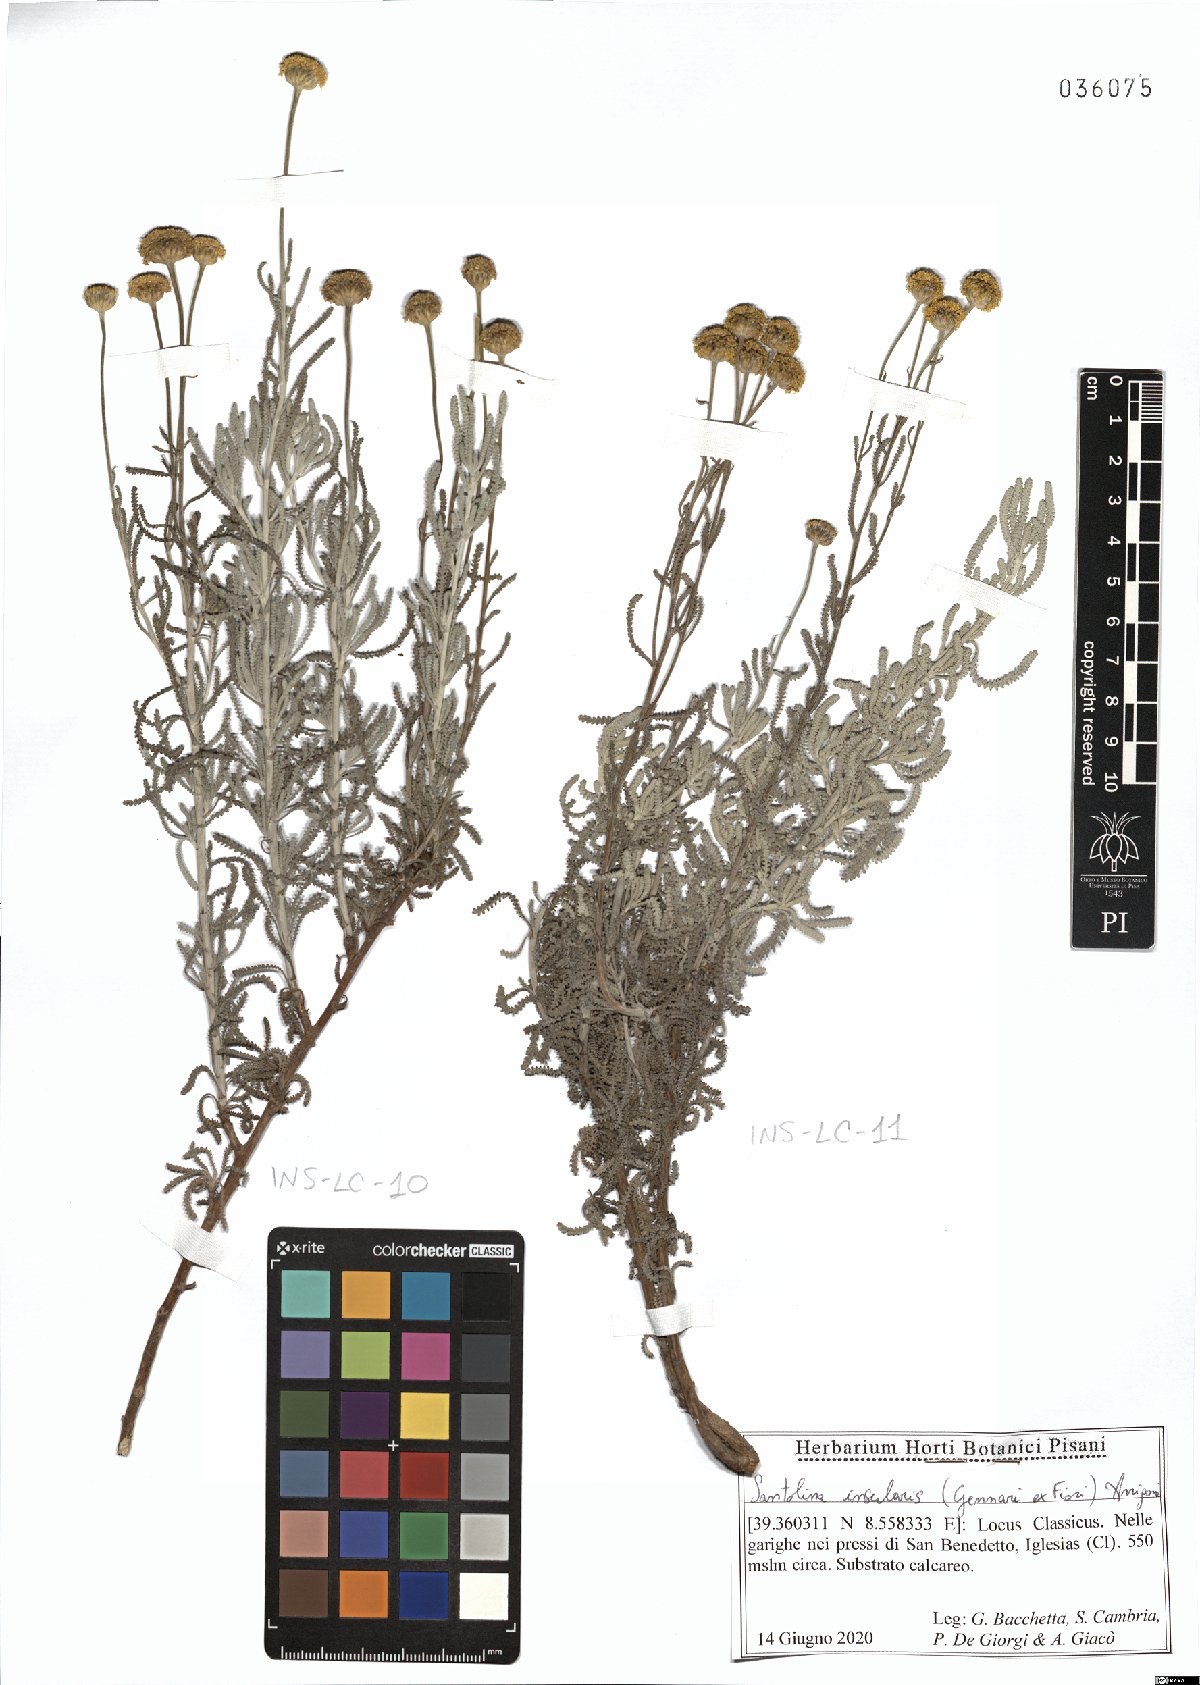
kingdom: Plantae
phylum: Tracheophyta
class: Magnoliopsida
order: Asterales
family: Asteraceae
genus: Santolina
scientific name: Santolina insularis
